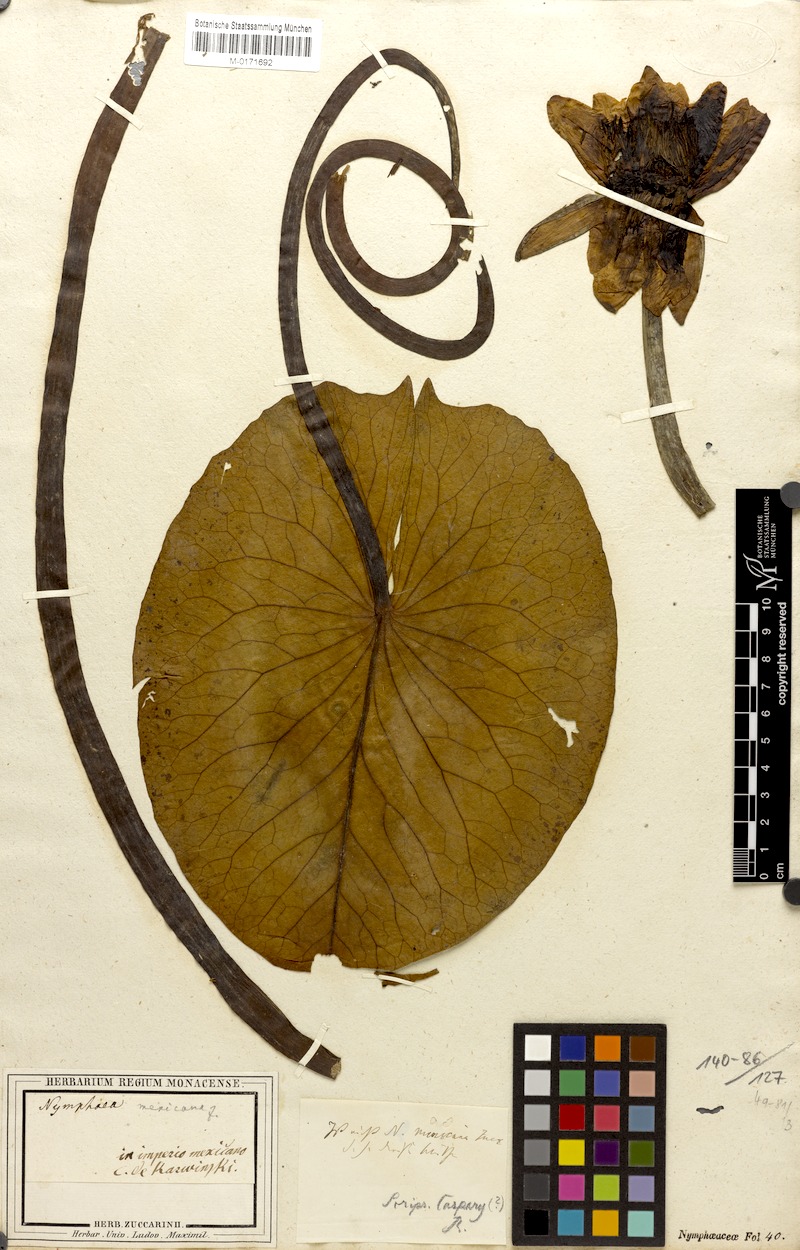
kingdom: Plantae
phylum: Tracheophyta
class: Magnoliopsida
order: Nymphaeales
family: Nymphaeaceae
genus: Nymphaea
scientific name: Nymphaea mexicana
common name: Banana water-lily
